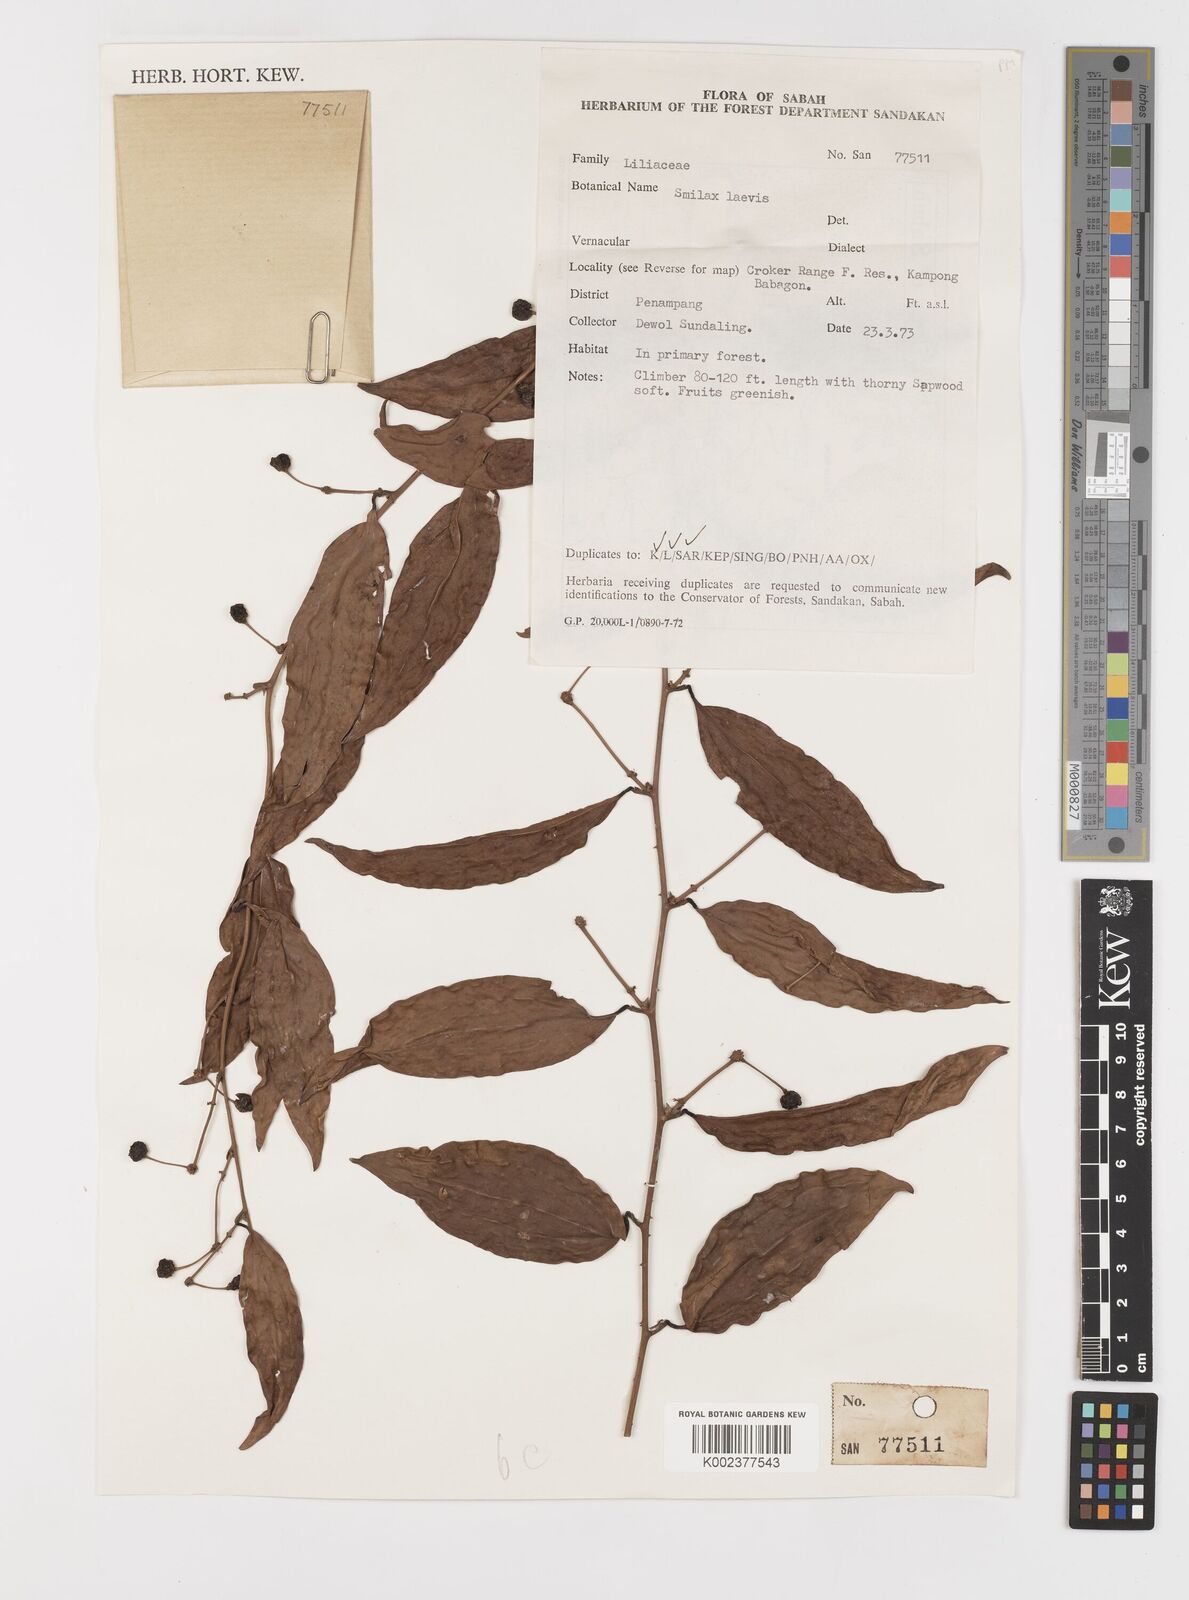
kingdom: Plantae
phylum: Tracheophyta
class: Liliopsida
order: Liliales
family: Smilacaceae
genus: Smilax
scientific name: Smilax laevis
